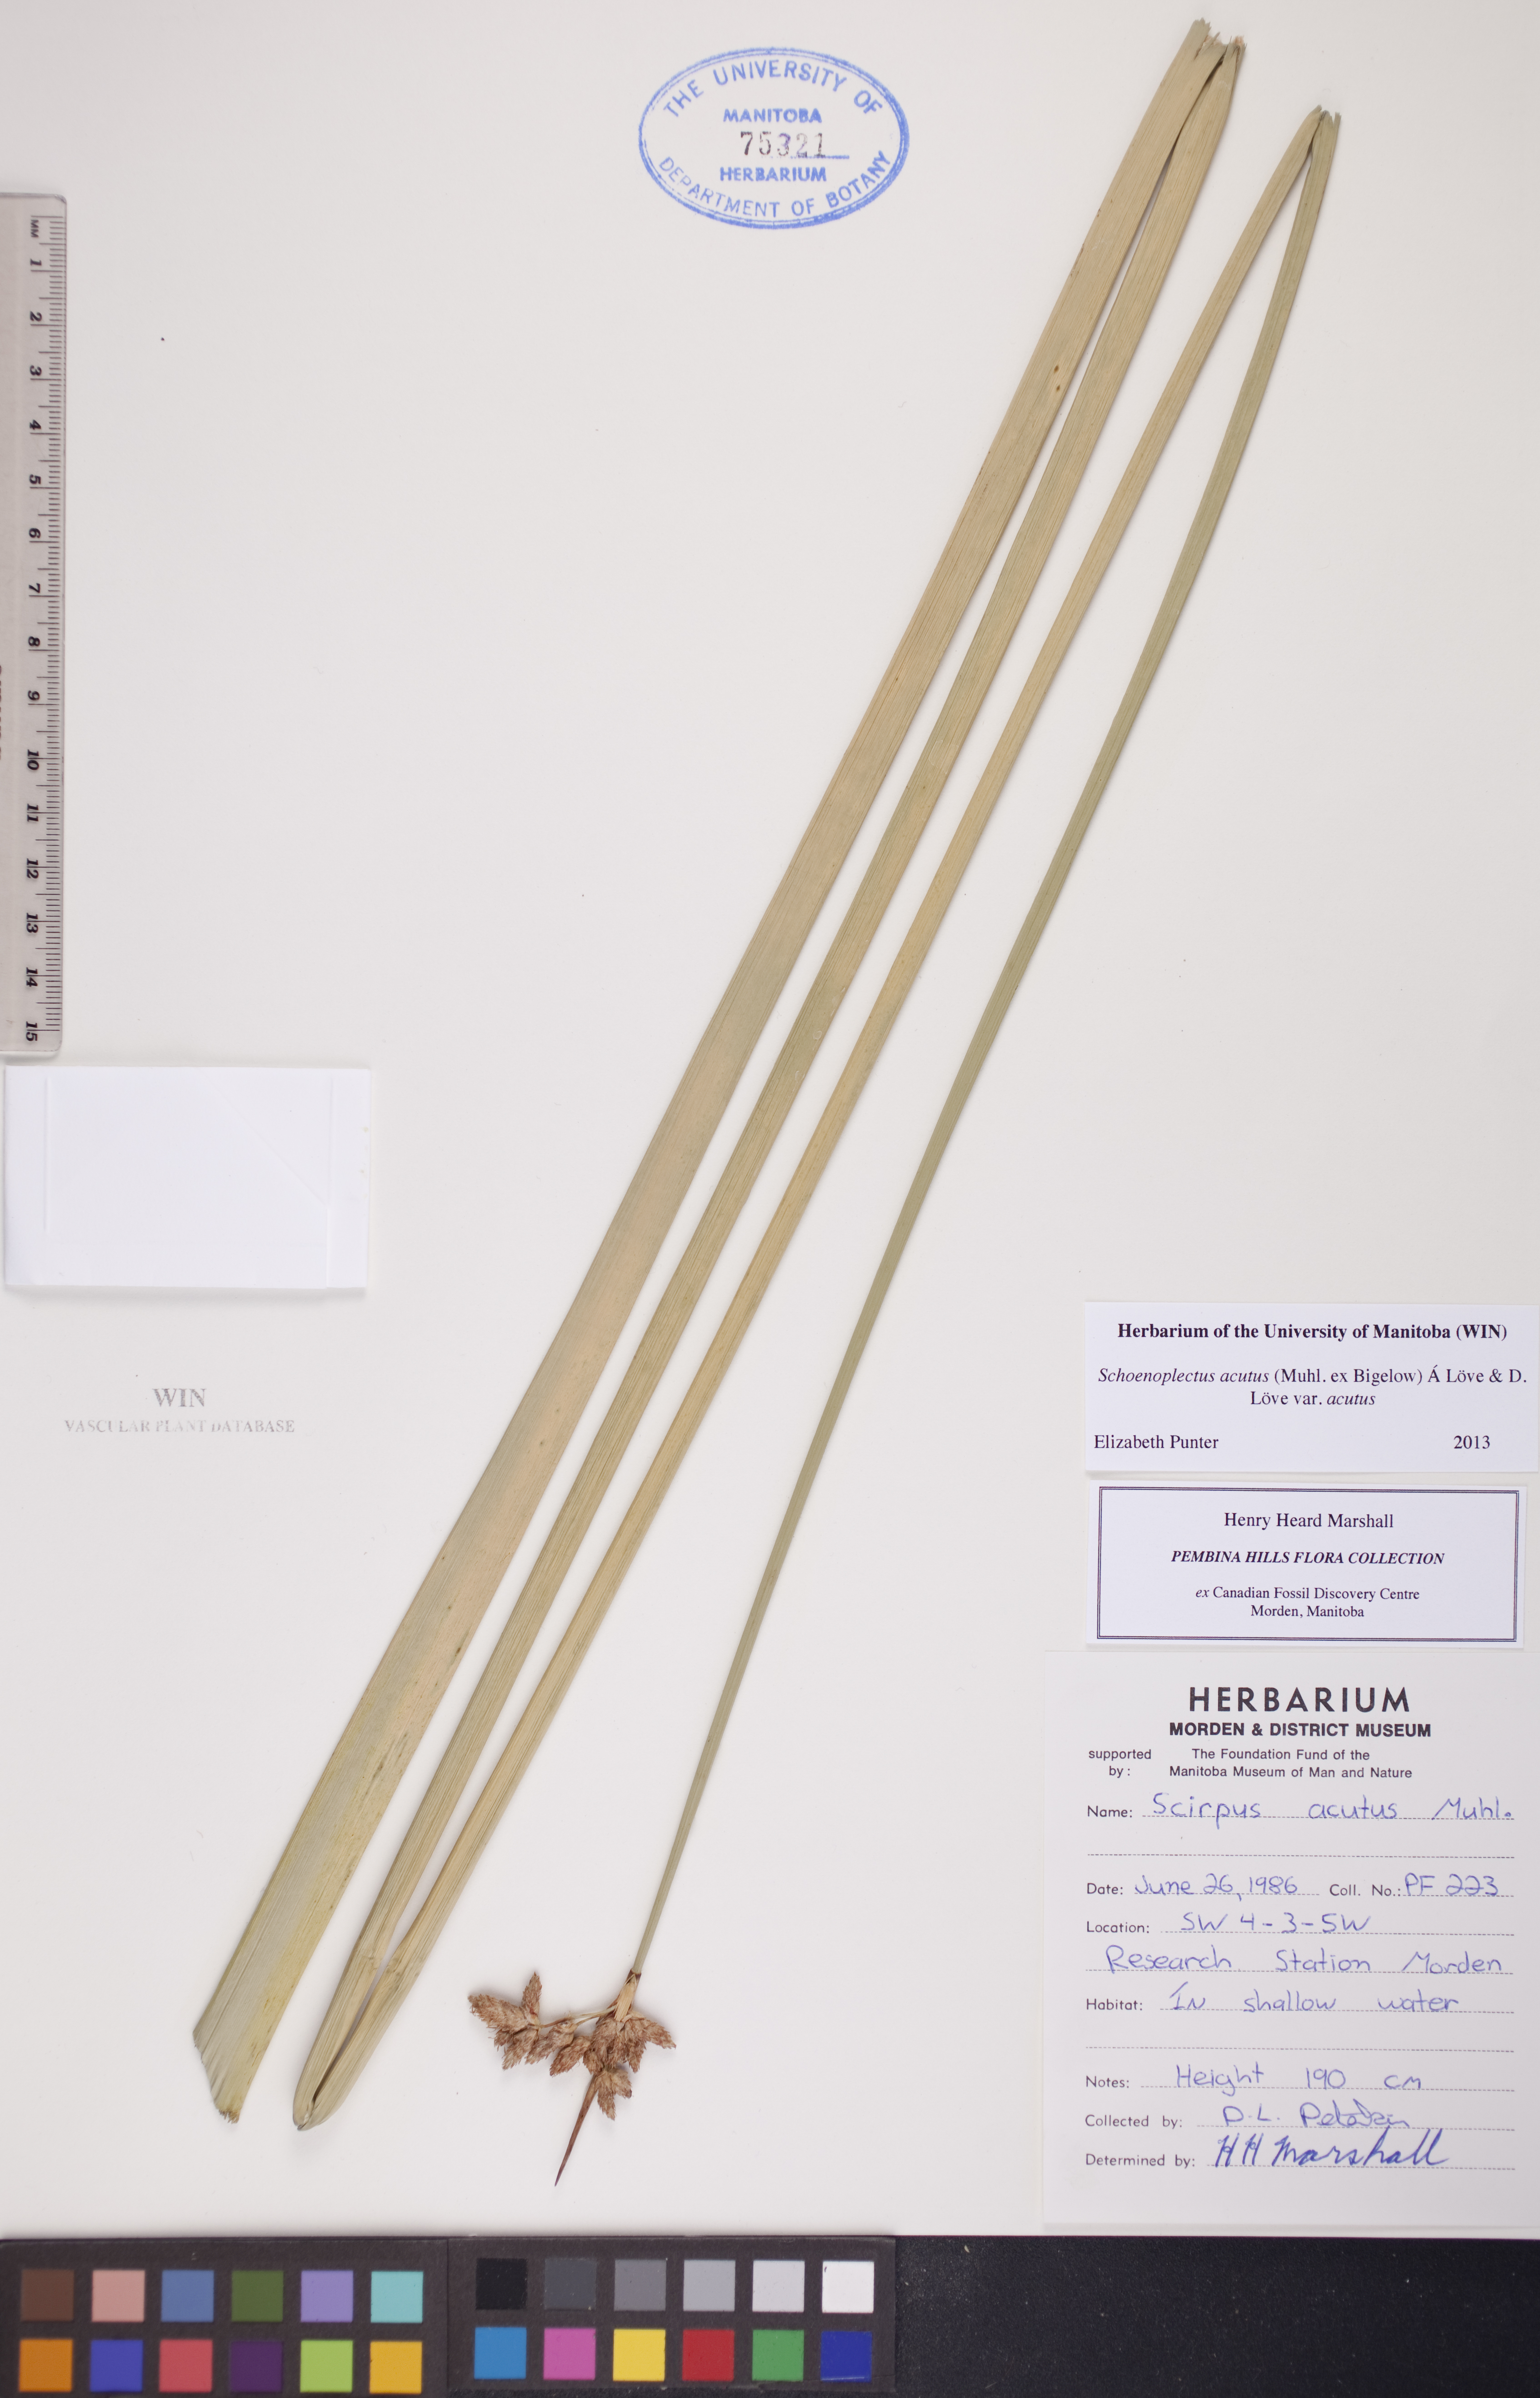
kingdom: Plantae
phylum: Tracheophyta
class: Liliopsida
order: Poales
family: Cyperaceae
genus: Scirpus
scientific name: Scirpus acutus
